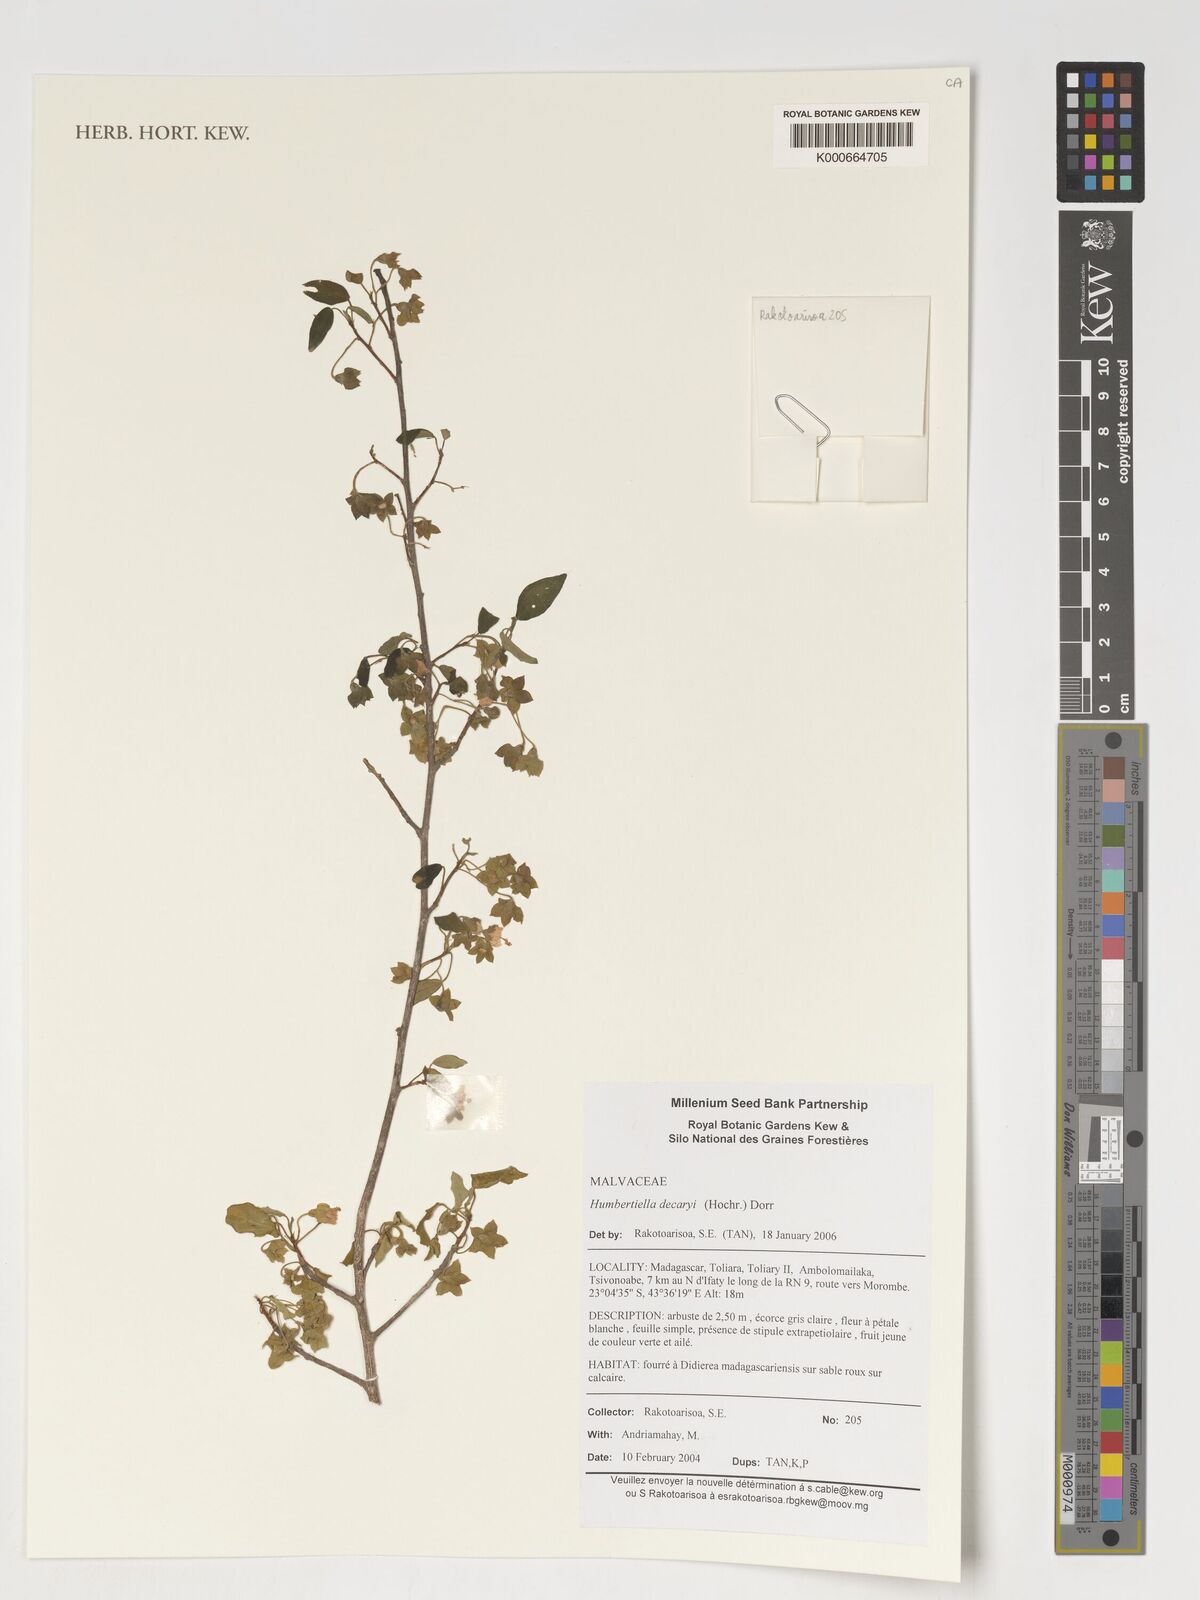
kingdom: Plantae
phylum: Tracheophyta
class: Magnoliopsida
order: Malvales
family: Malvaceae
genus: Humbertiella
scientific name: Humbertiella decaryi
